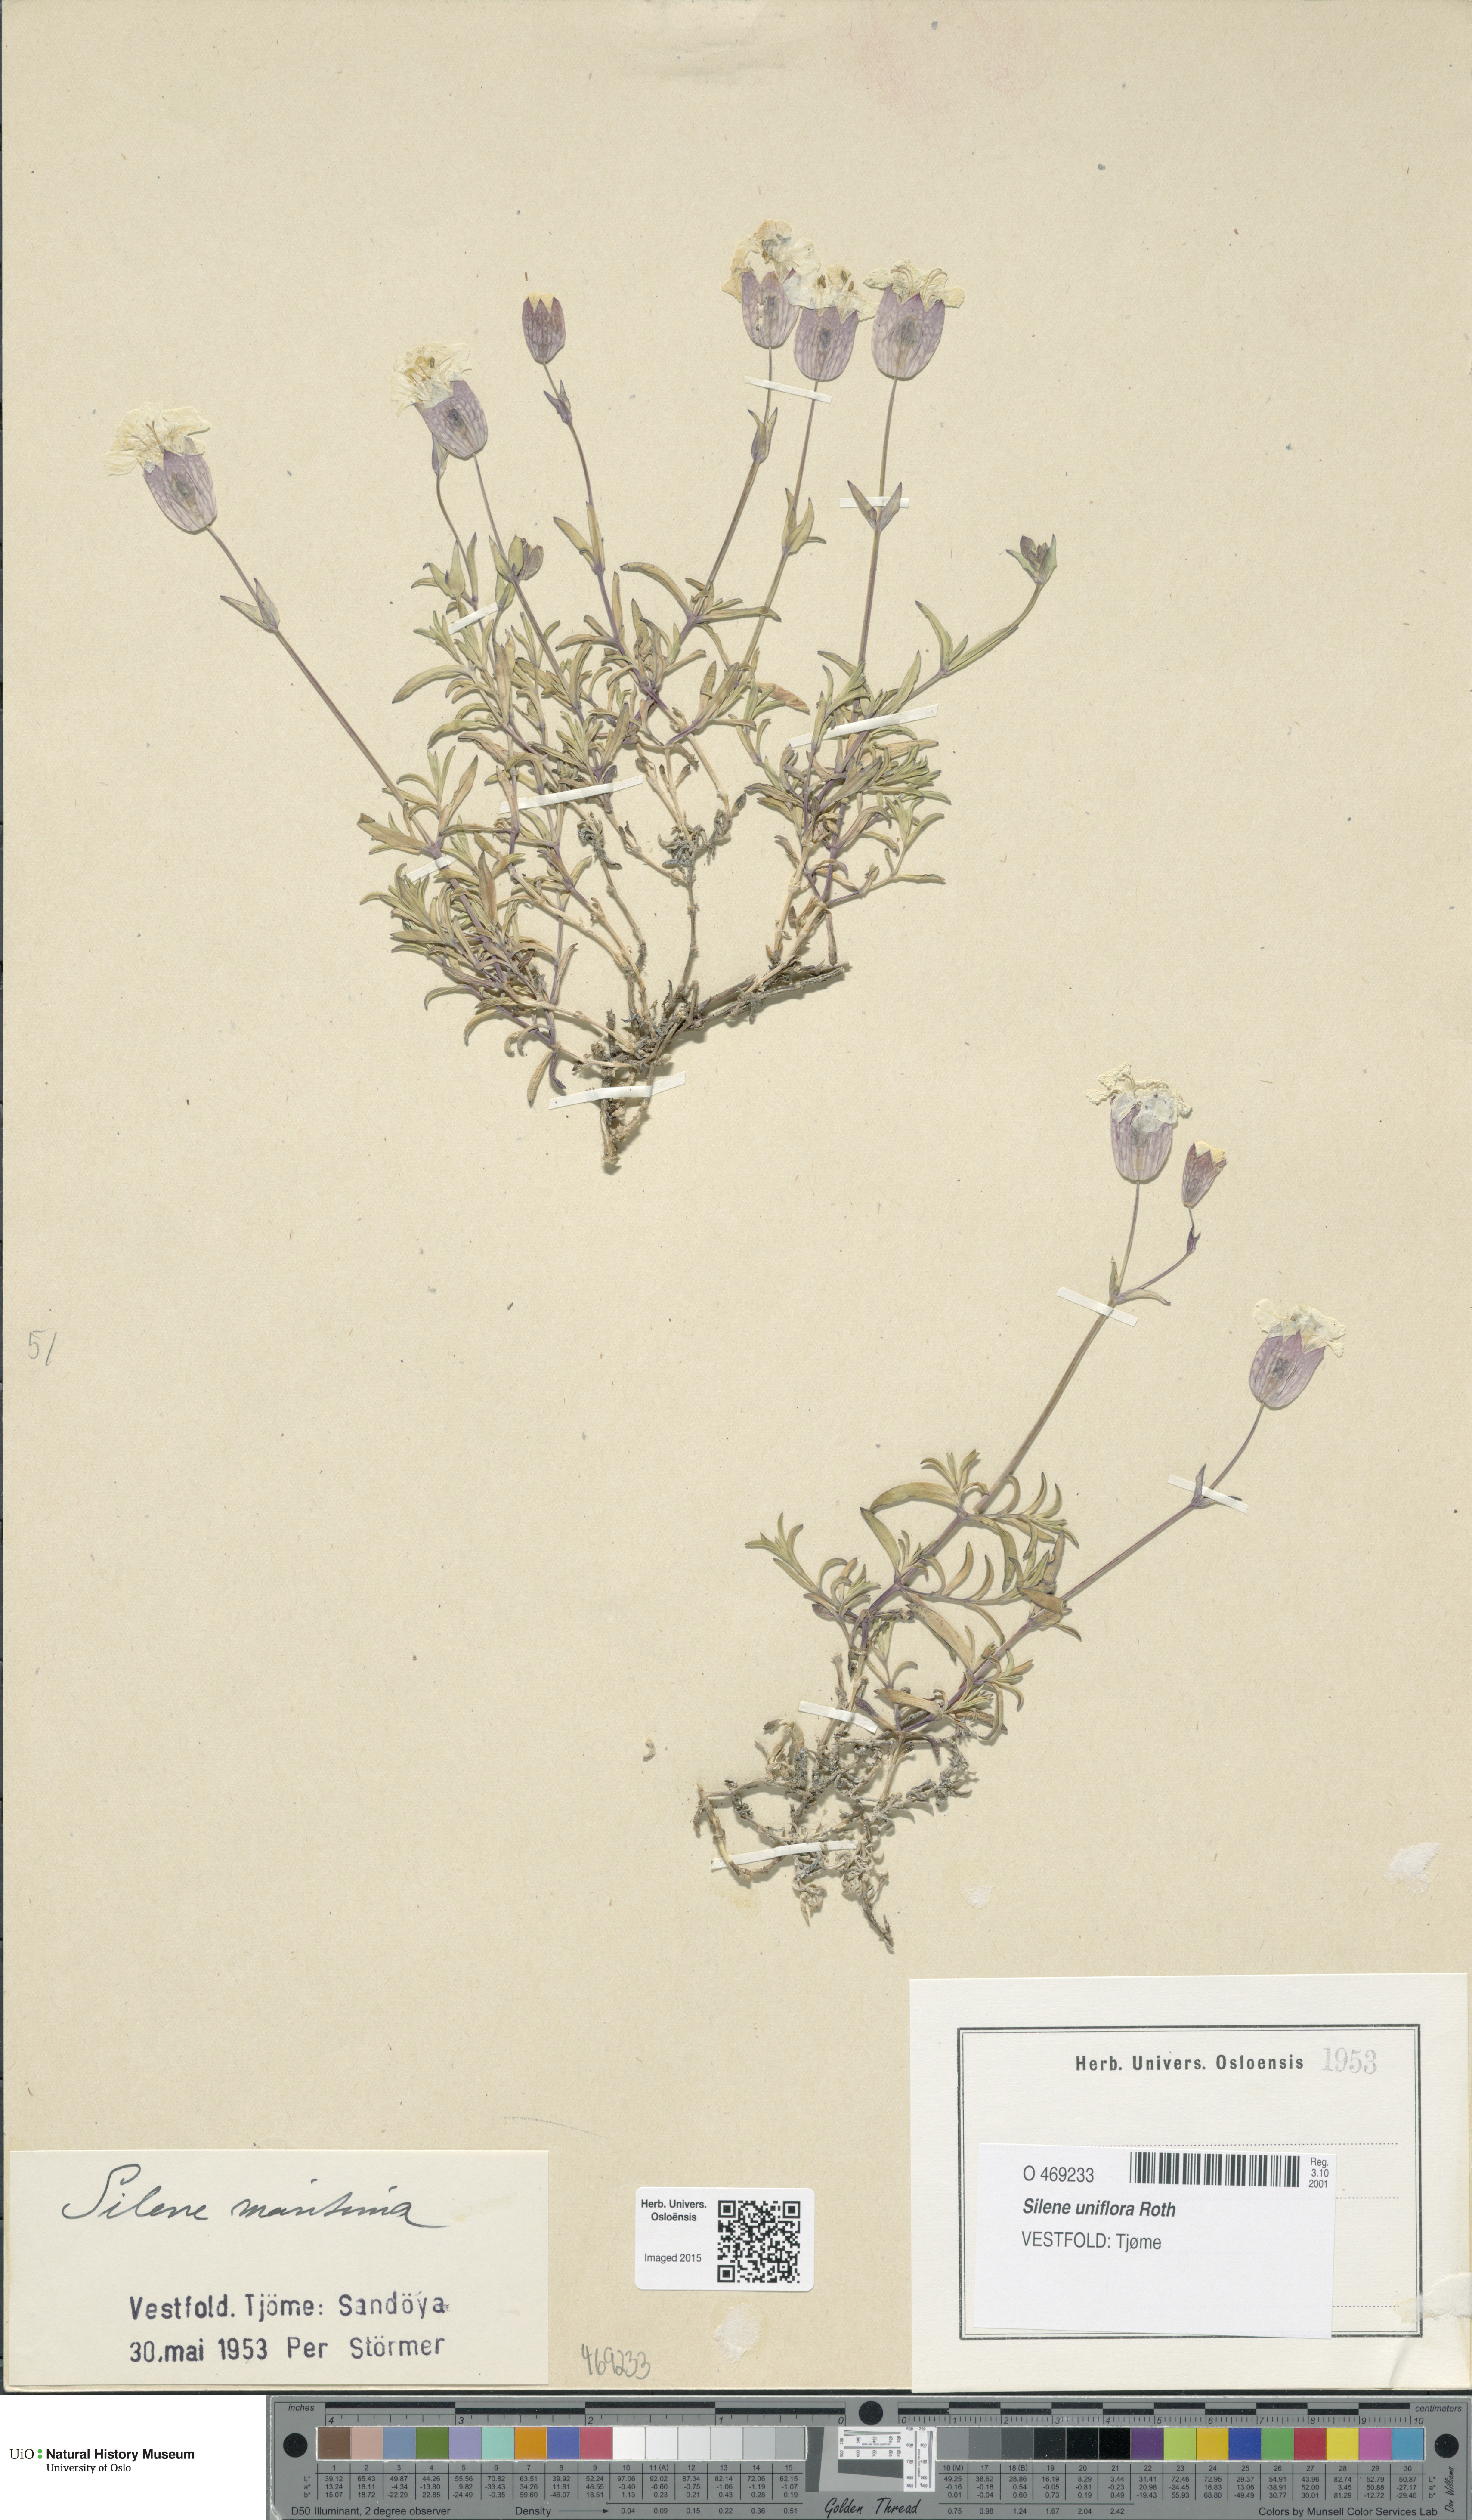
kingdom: Plantae
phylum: Tracheophyta
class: Magnoliopsida
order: Caryophyllales
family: Caryophyllaceae
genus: Silene
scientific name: Silene uniflora
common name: Sea campion
